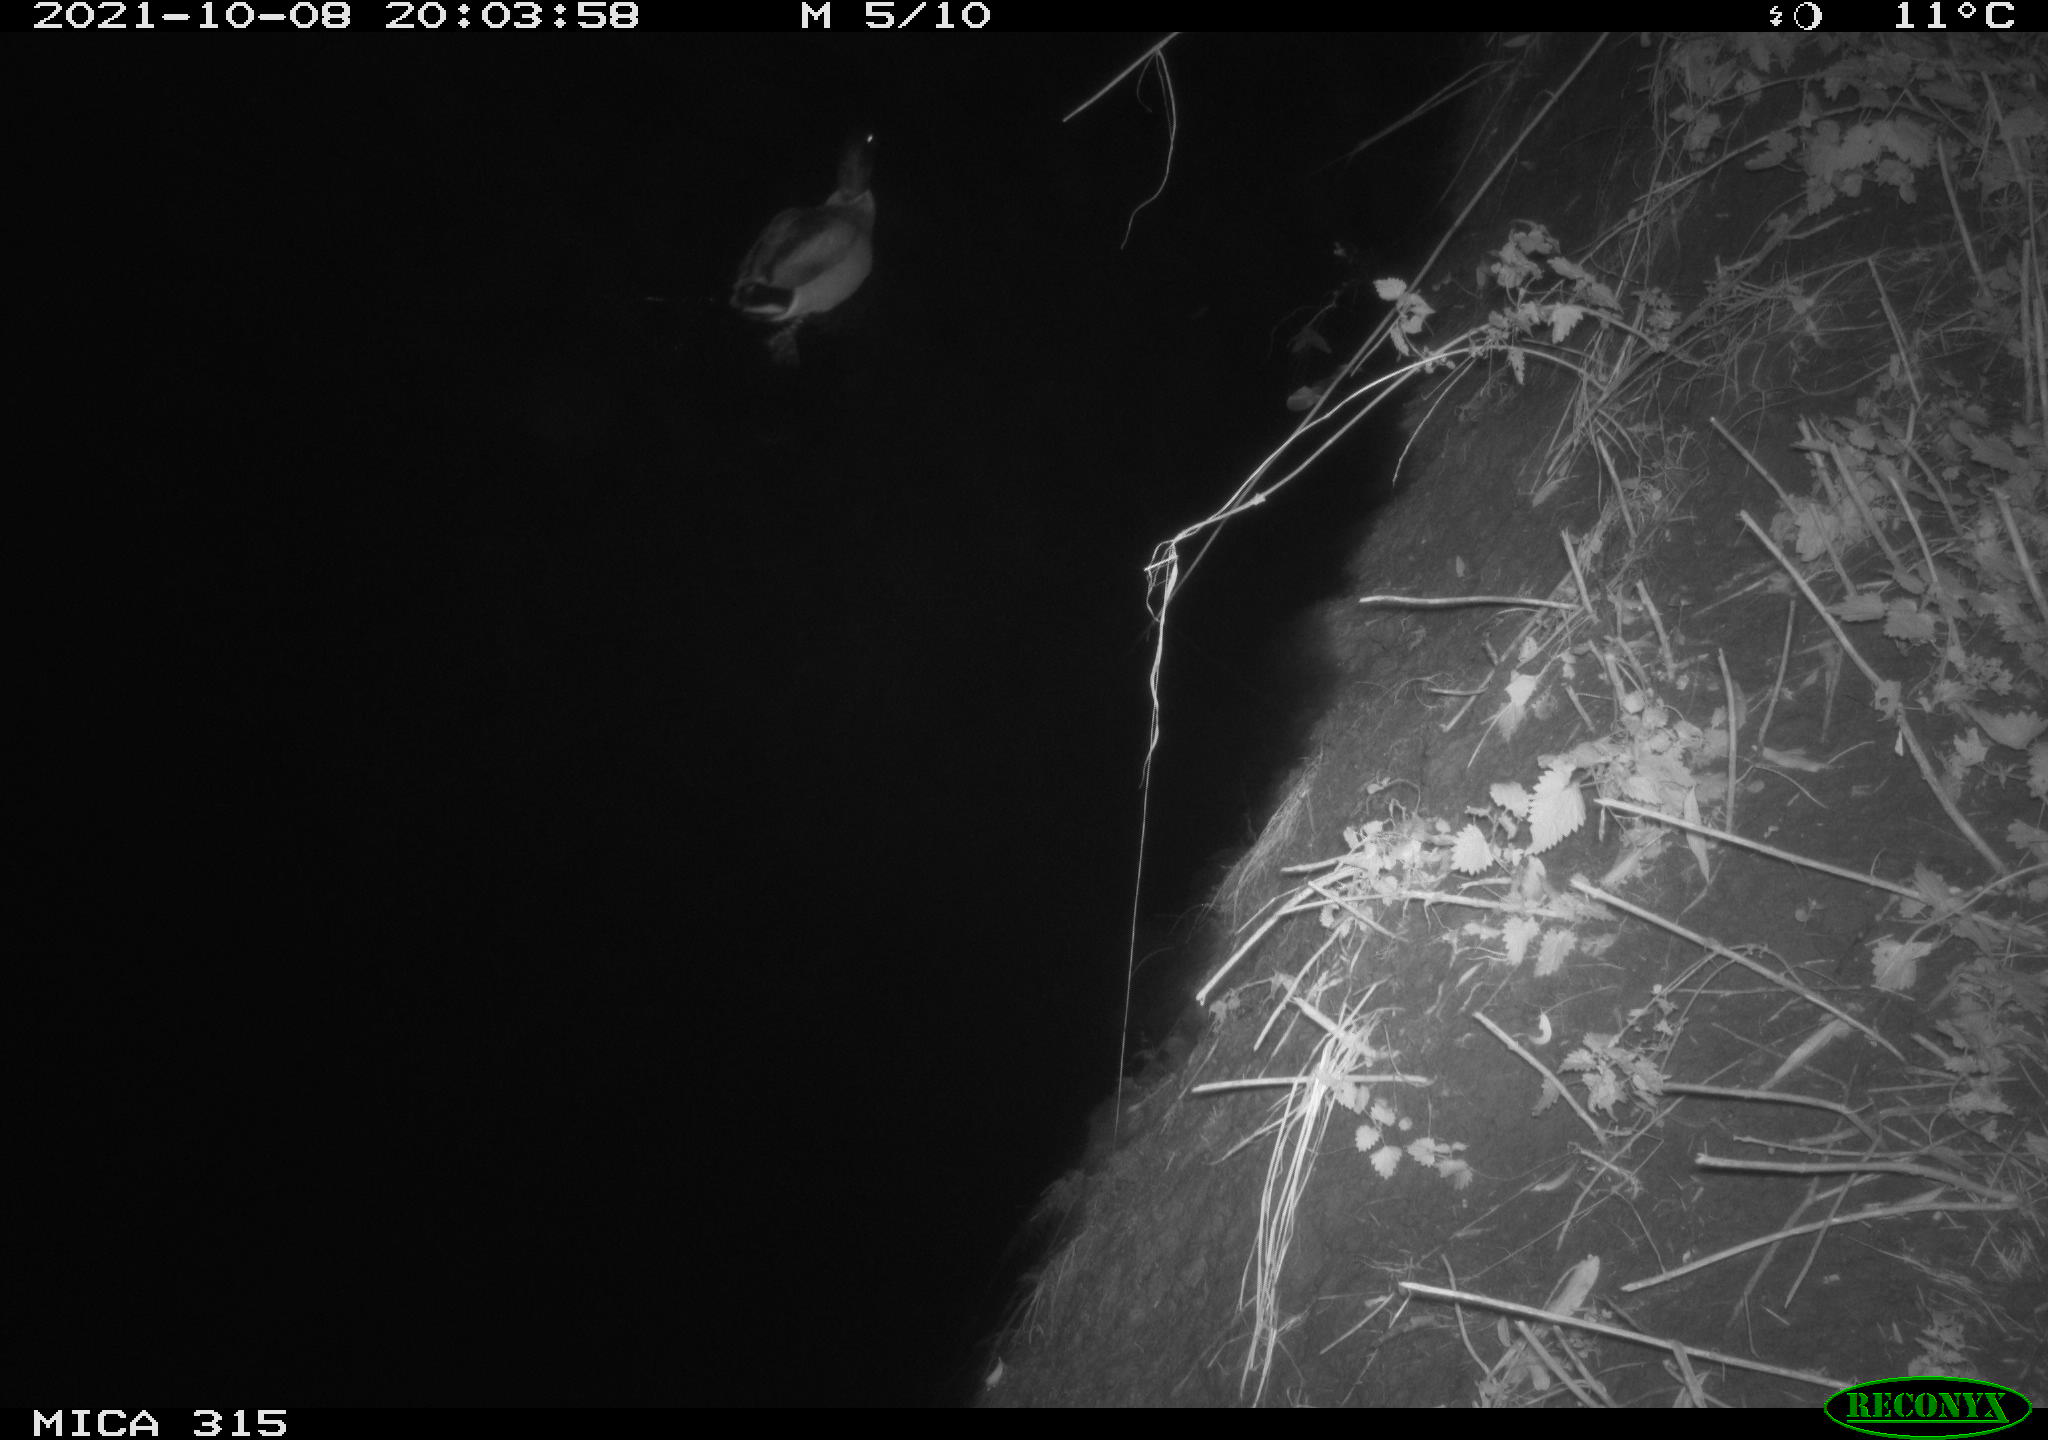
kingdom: Animalia
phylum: Chordata
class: Aves
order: Anseriformes
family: Anatidae
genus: Anas
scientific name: Anas platyrhynchos
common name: Mallard
